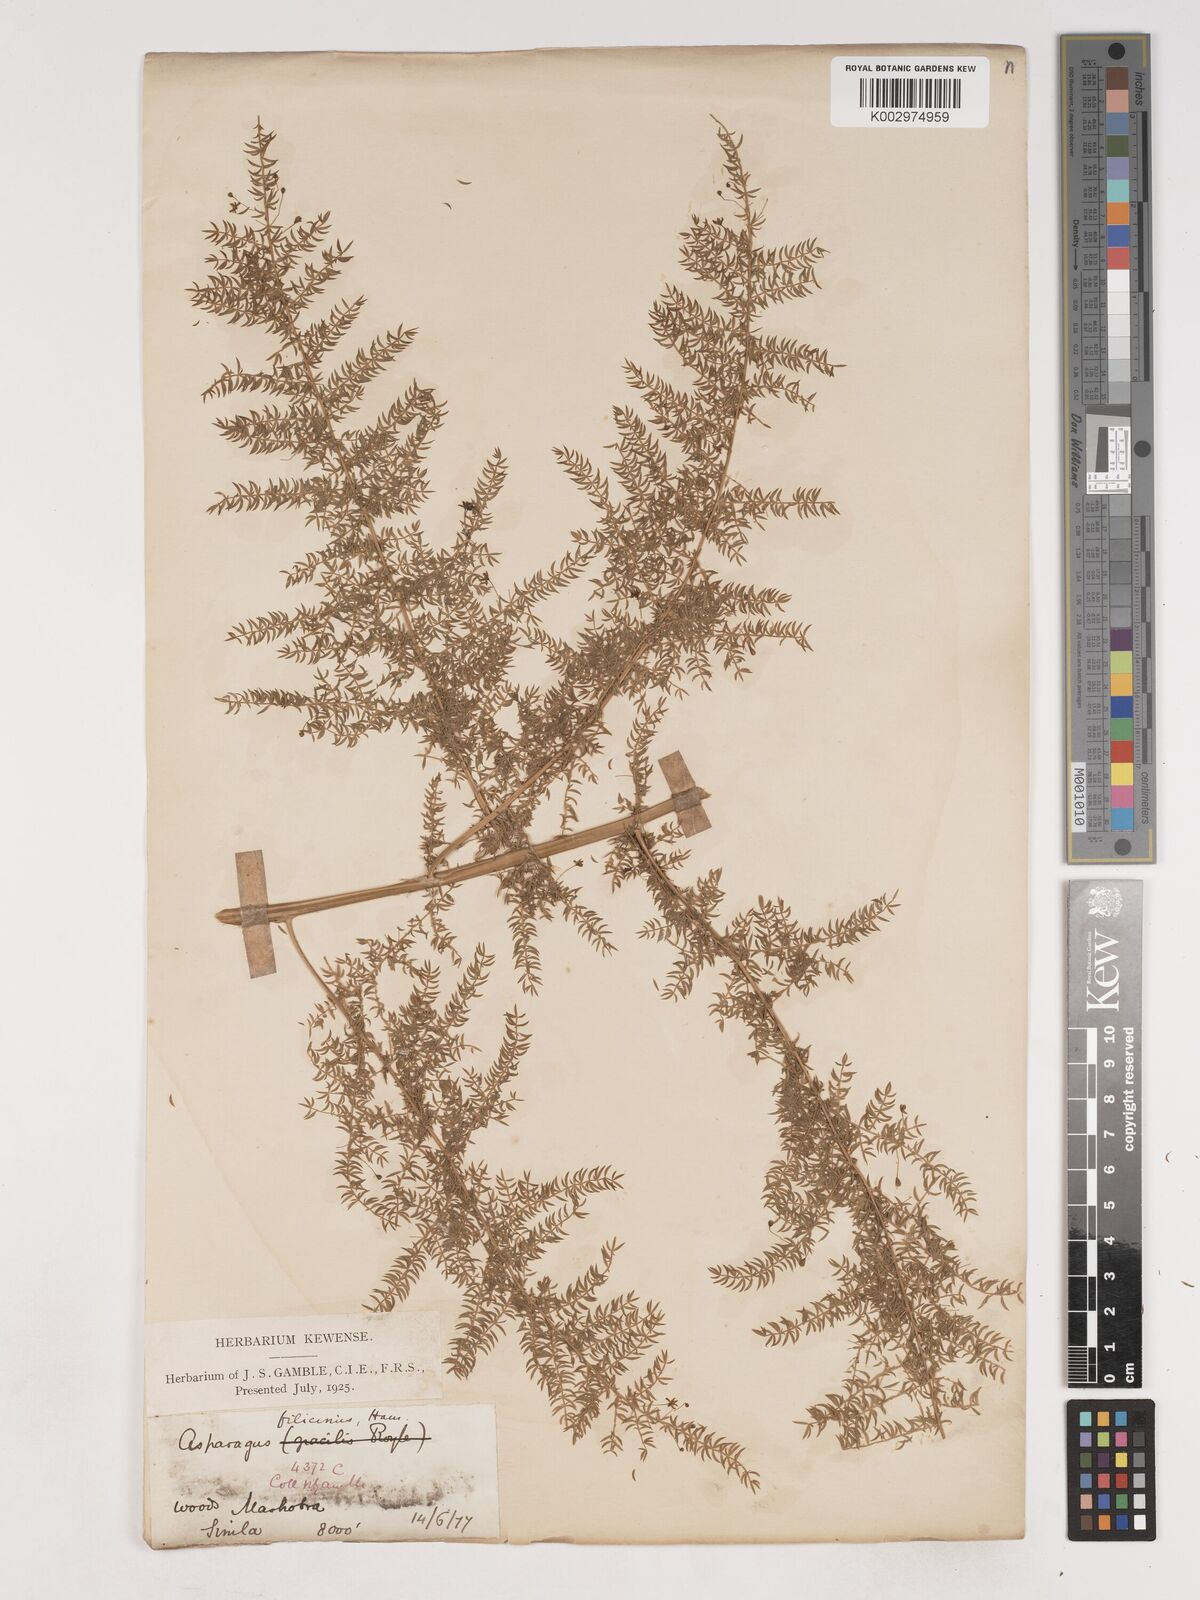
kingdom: Plantae
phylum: Tracheophyta
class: Liliopsida
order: Asparagales
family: Asparagaceae
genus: Asparagus
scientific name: Asparagus filicinus
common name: Fern asparagus
